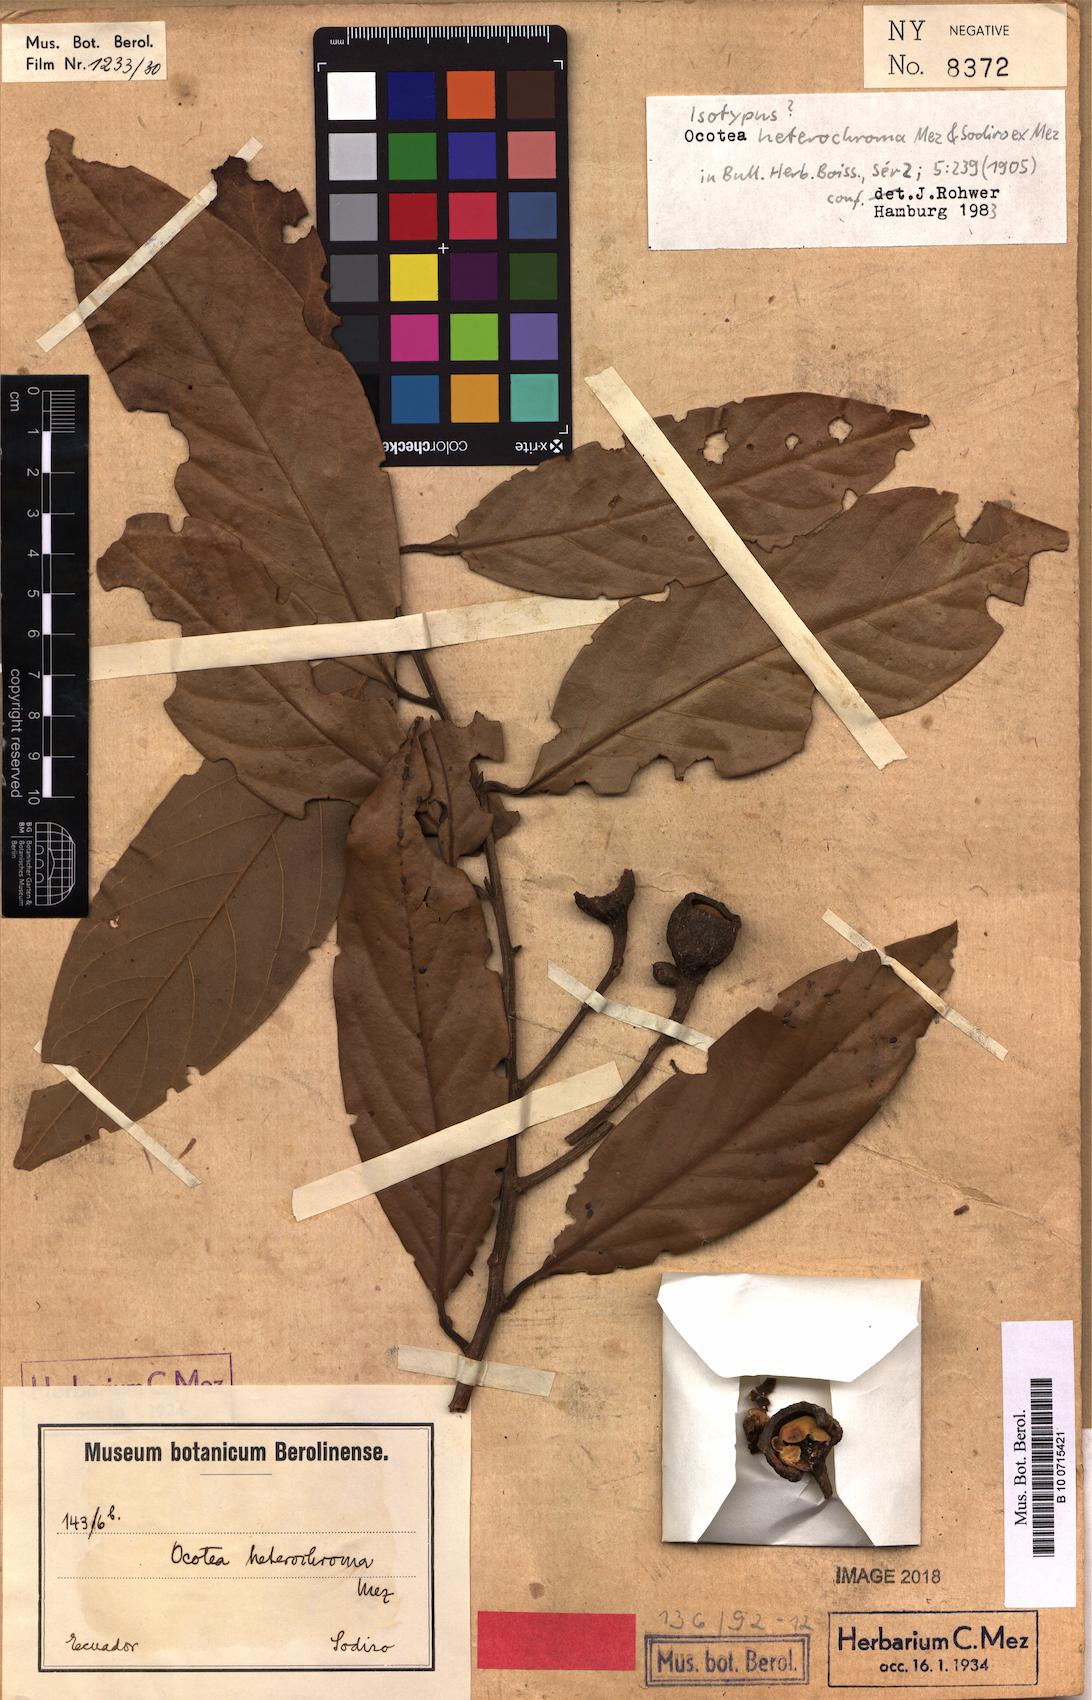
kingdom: Plantae
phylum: Tracheophyta
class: Magnoliopsida
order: Laurales
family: Lauraceae
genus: Ocotea
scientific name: Ocotea heterochroma
